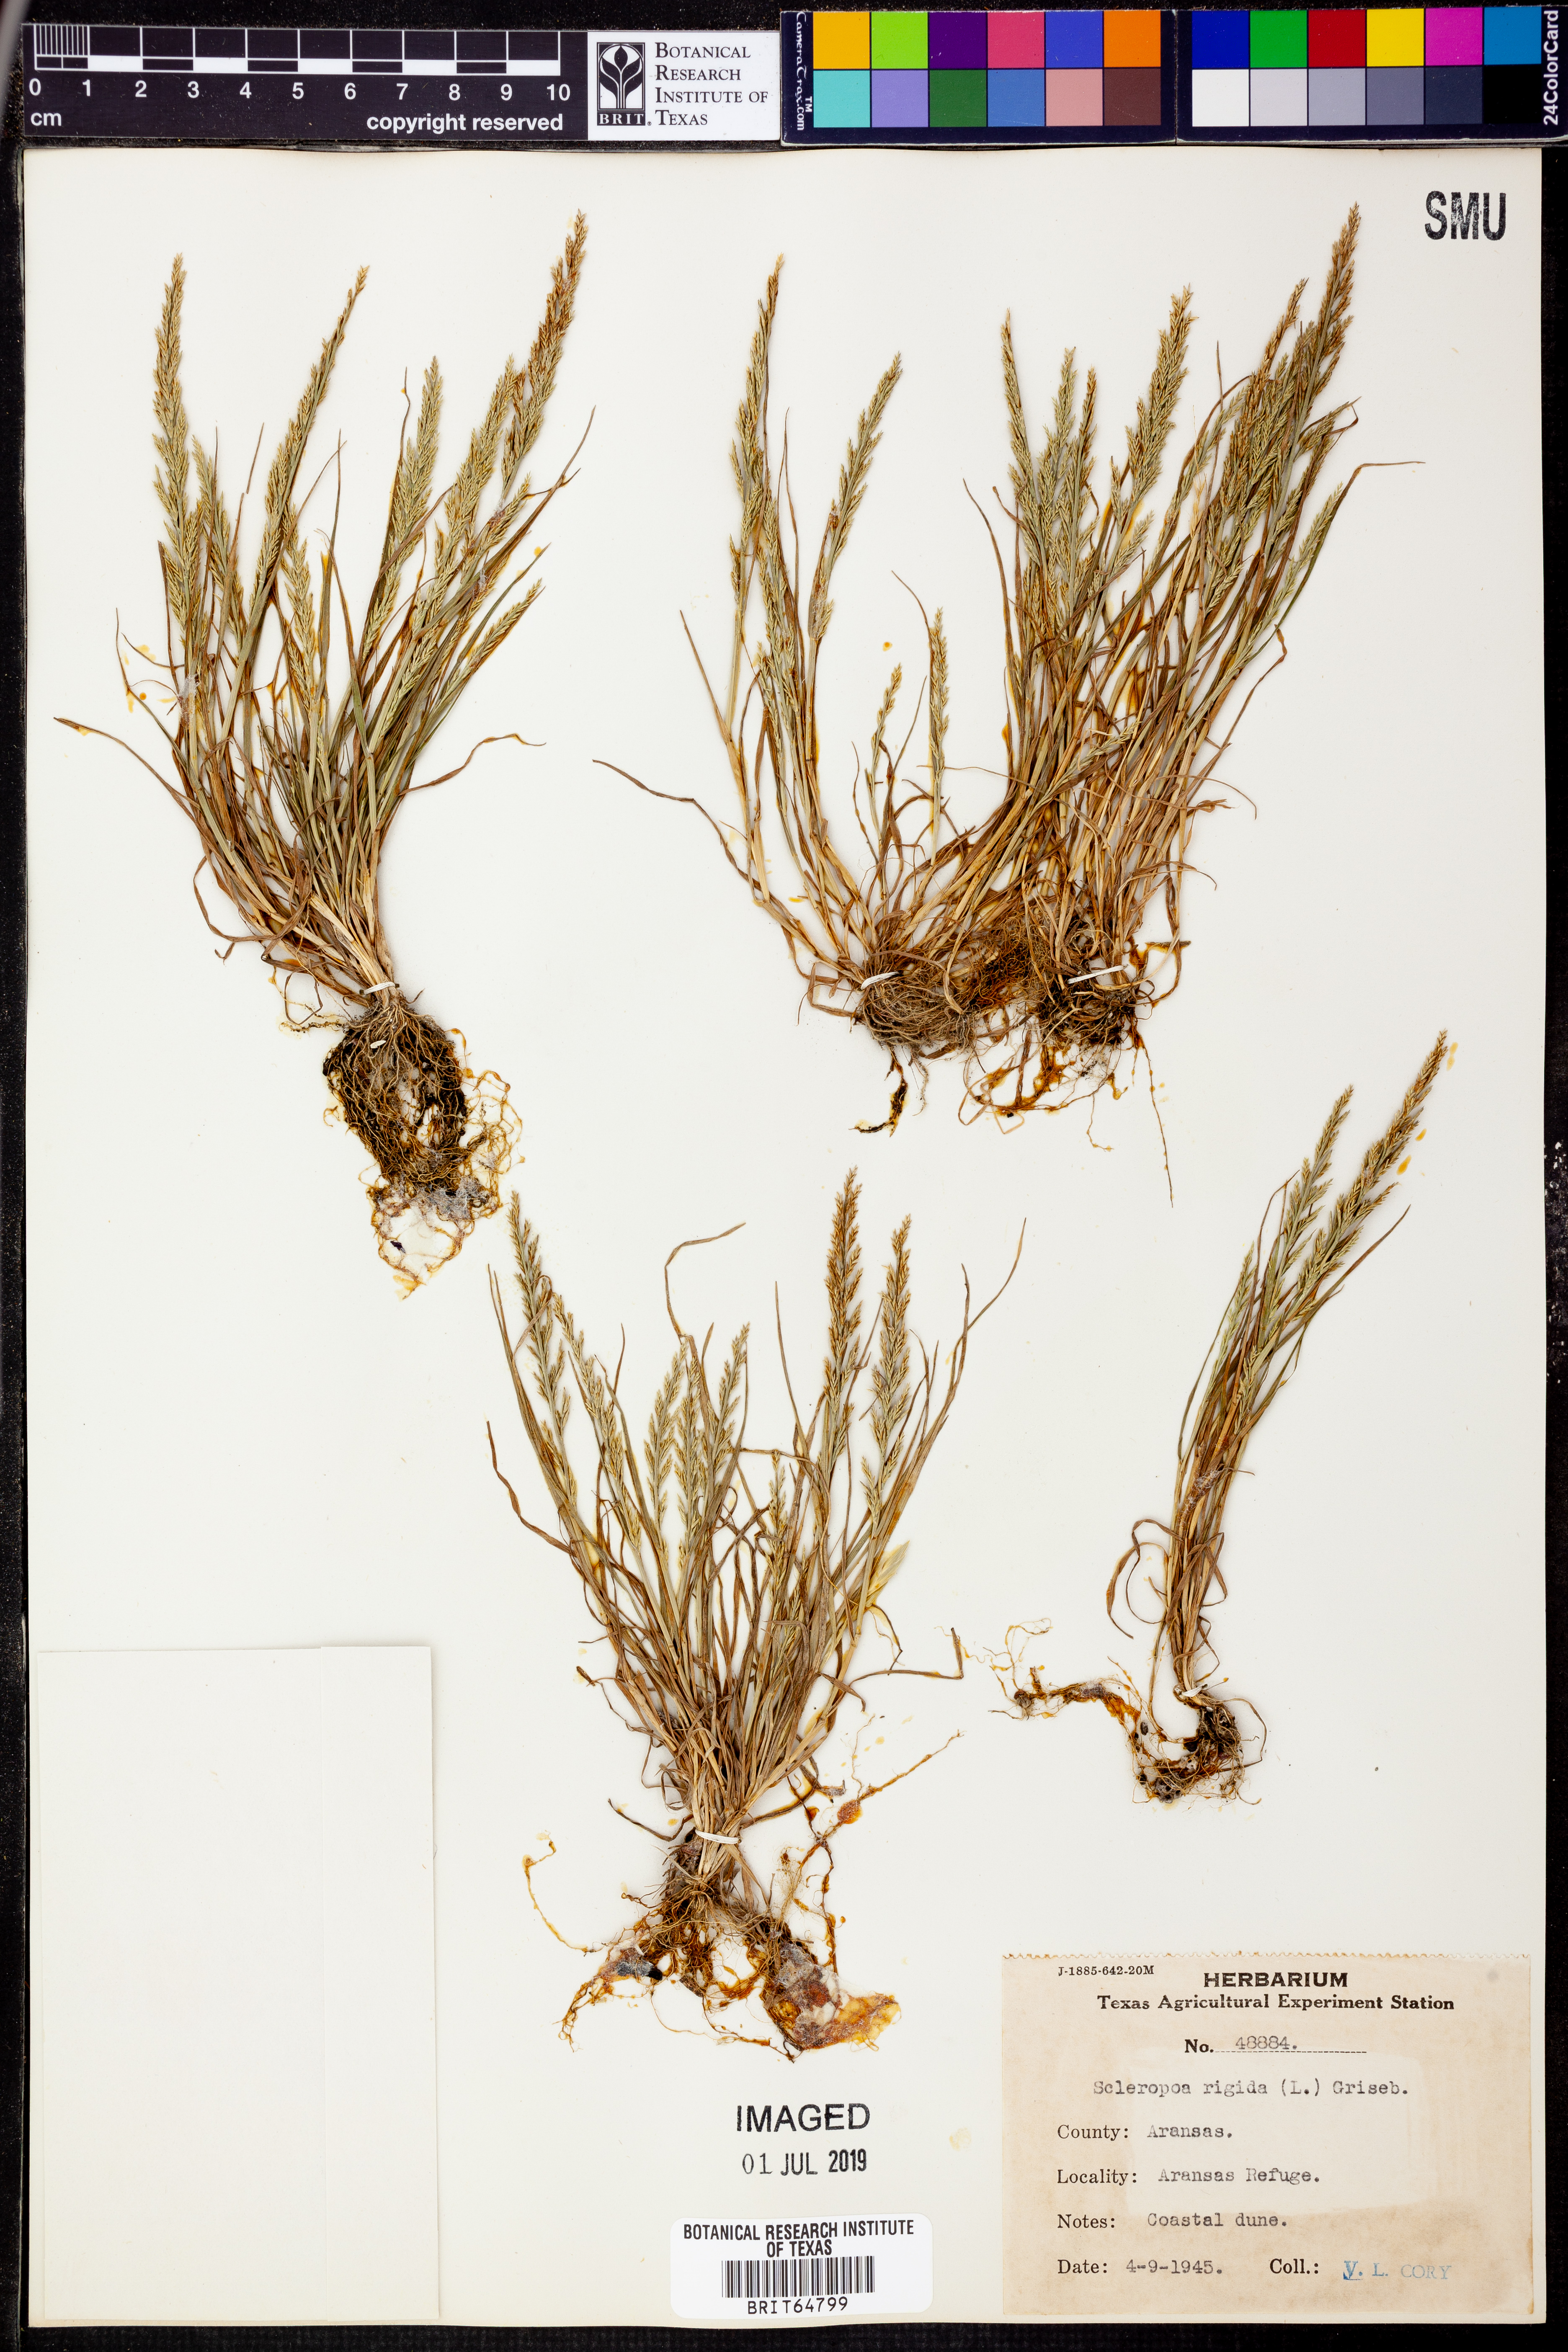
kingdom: Plantae
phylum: Tracheophyta
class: Liliopsida
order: Poales
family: Poaceae
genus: Catapodium
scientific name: Catapodium rigidum
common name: Fern-grass
